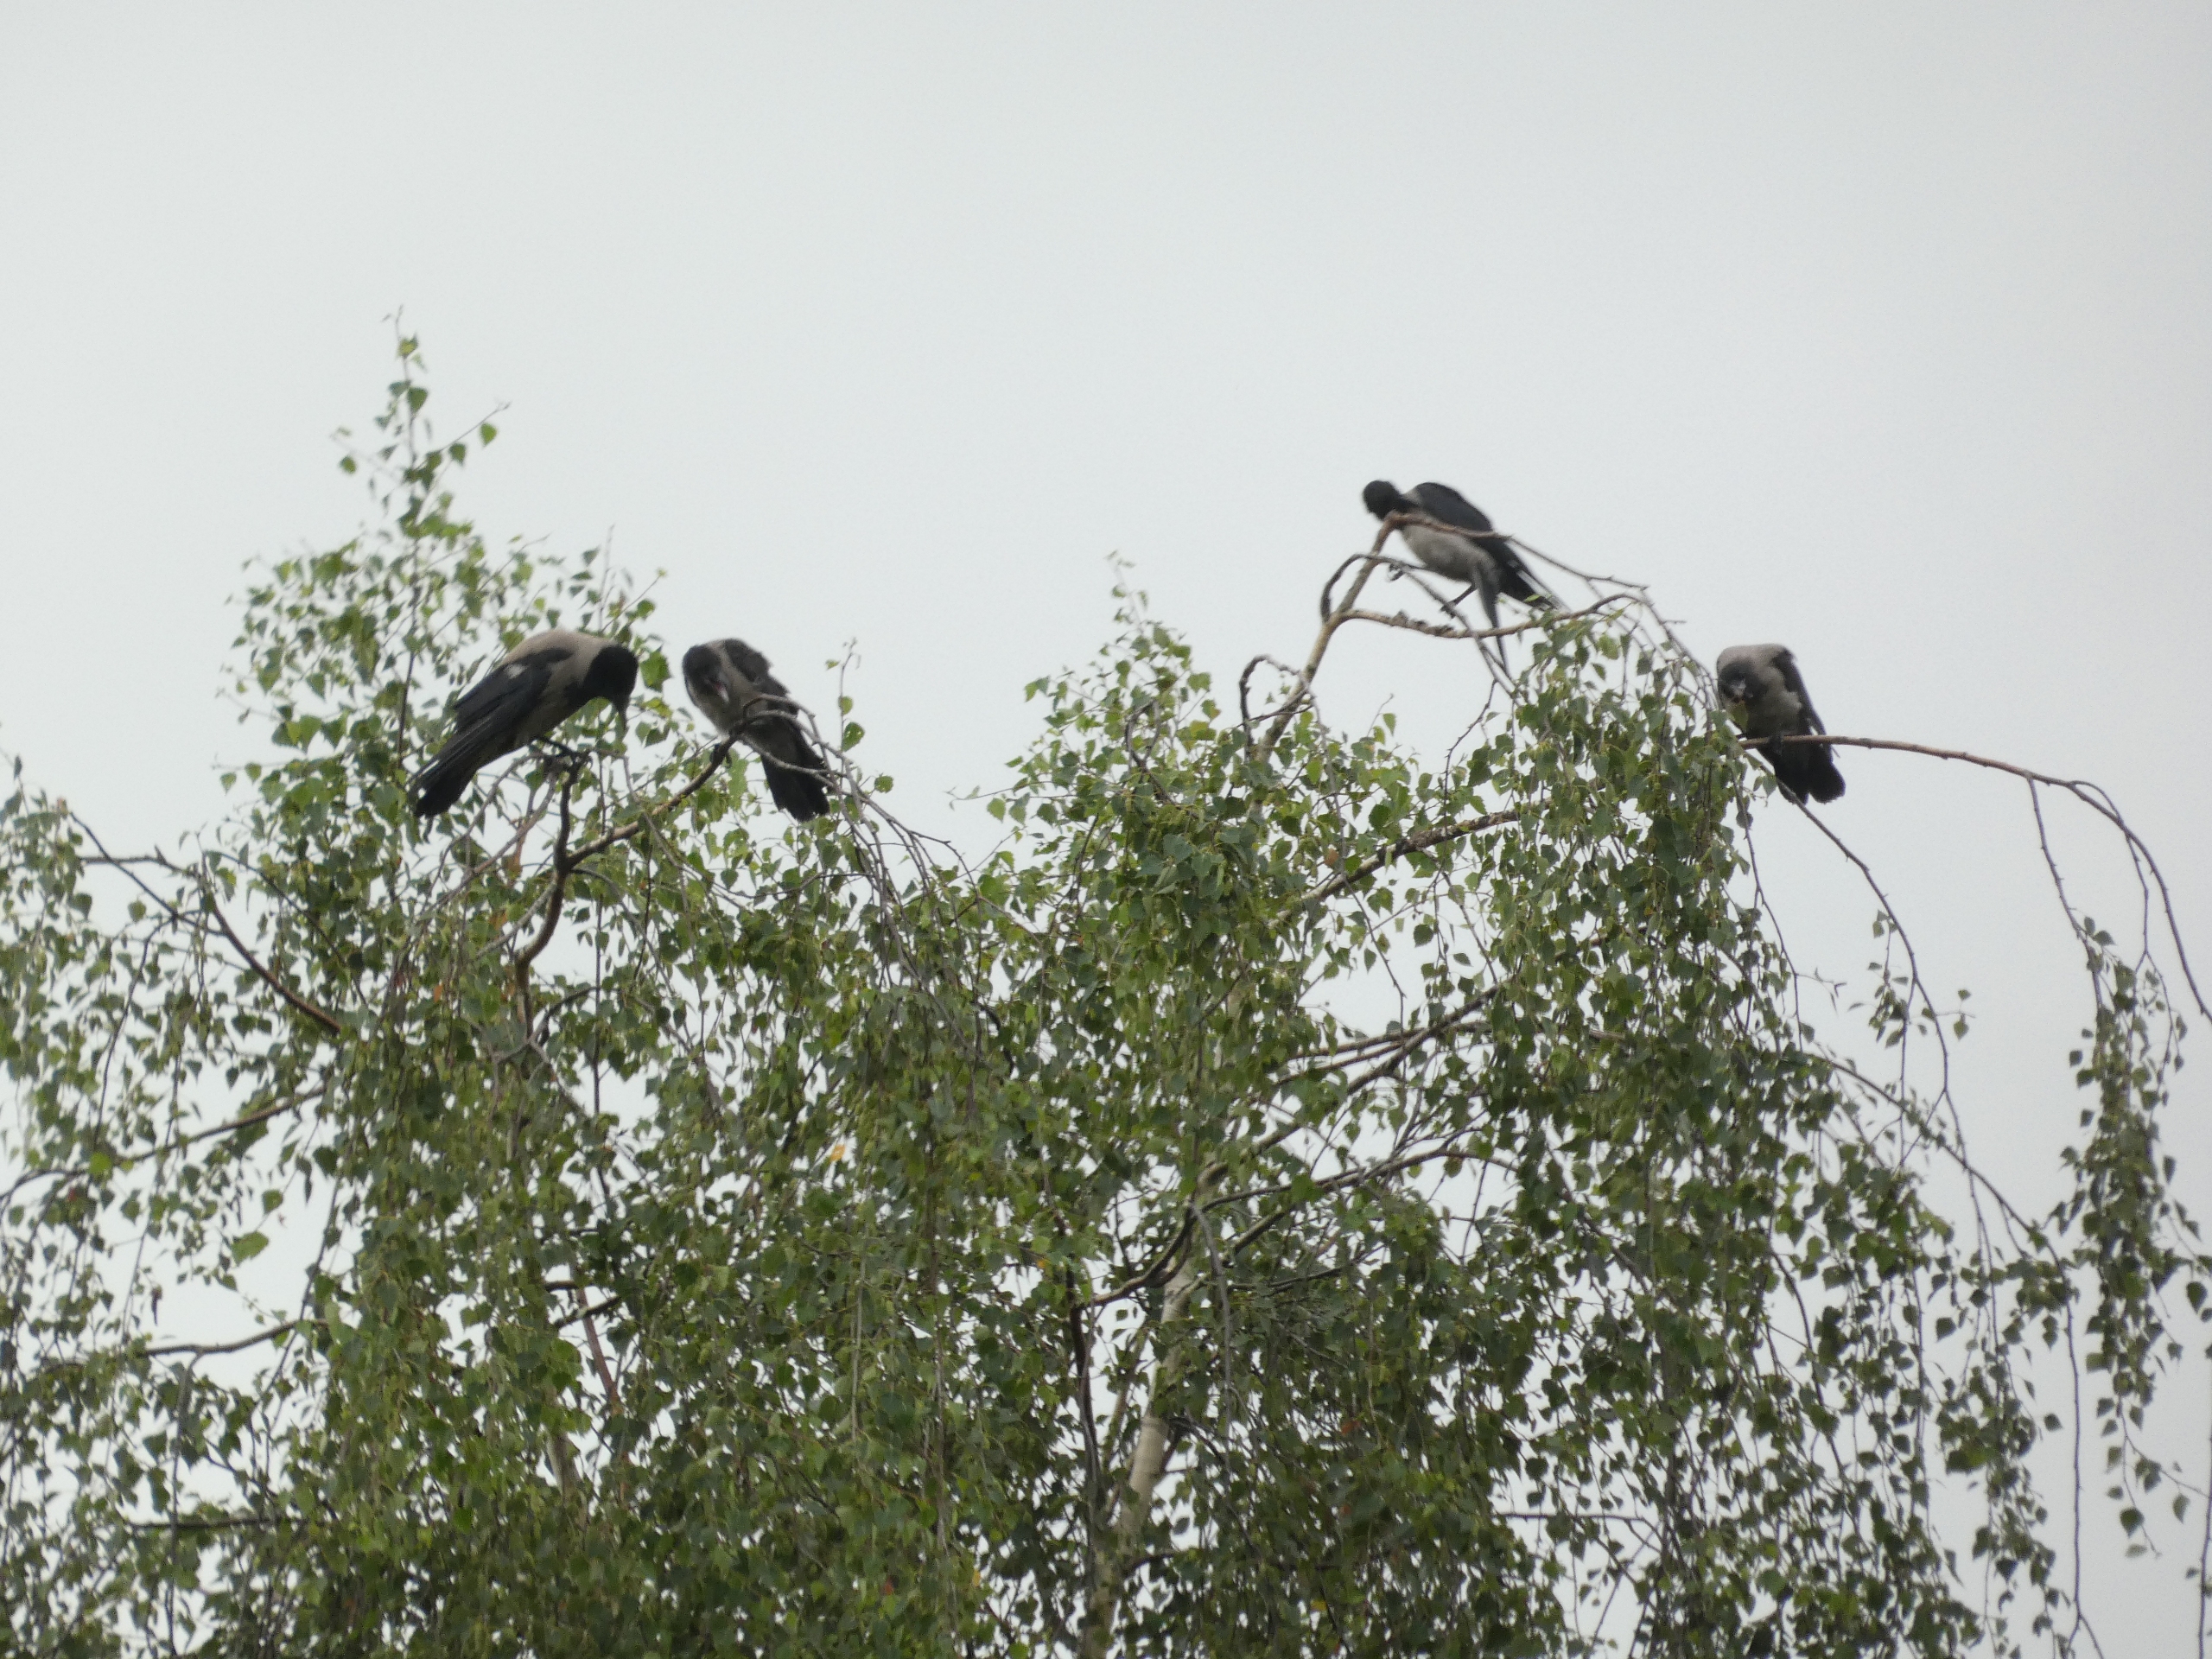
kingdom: Animalia
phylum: Chordata
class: Aves
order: Passeriformes
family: Corvidae
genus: Corvus
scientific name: Corvus cornix
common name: Gråkrage
